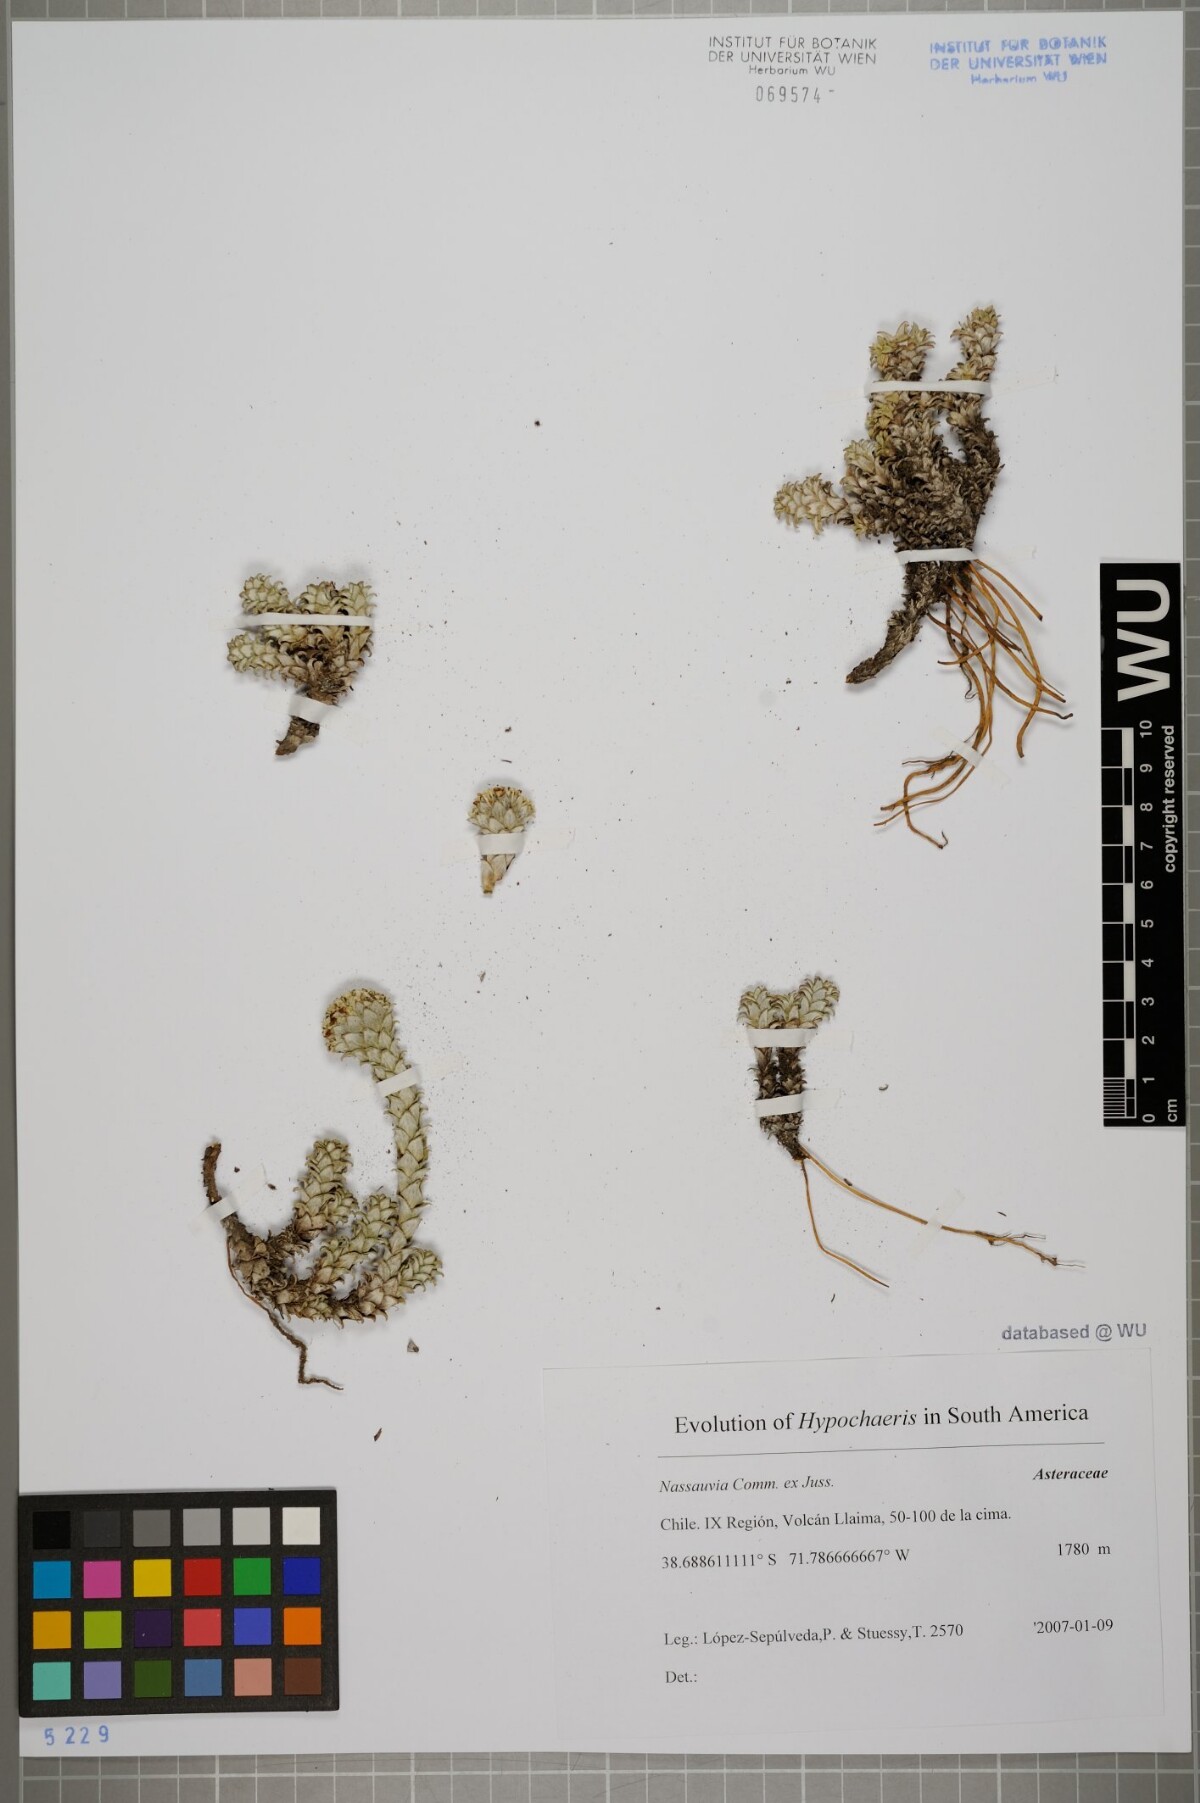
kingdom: Plantae
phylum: Tracheophyta
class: Magnoliopsida
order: Asterales
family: Asteraceae
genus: Nassauvia
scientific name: Nassauvia
